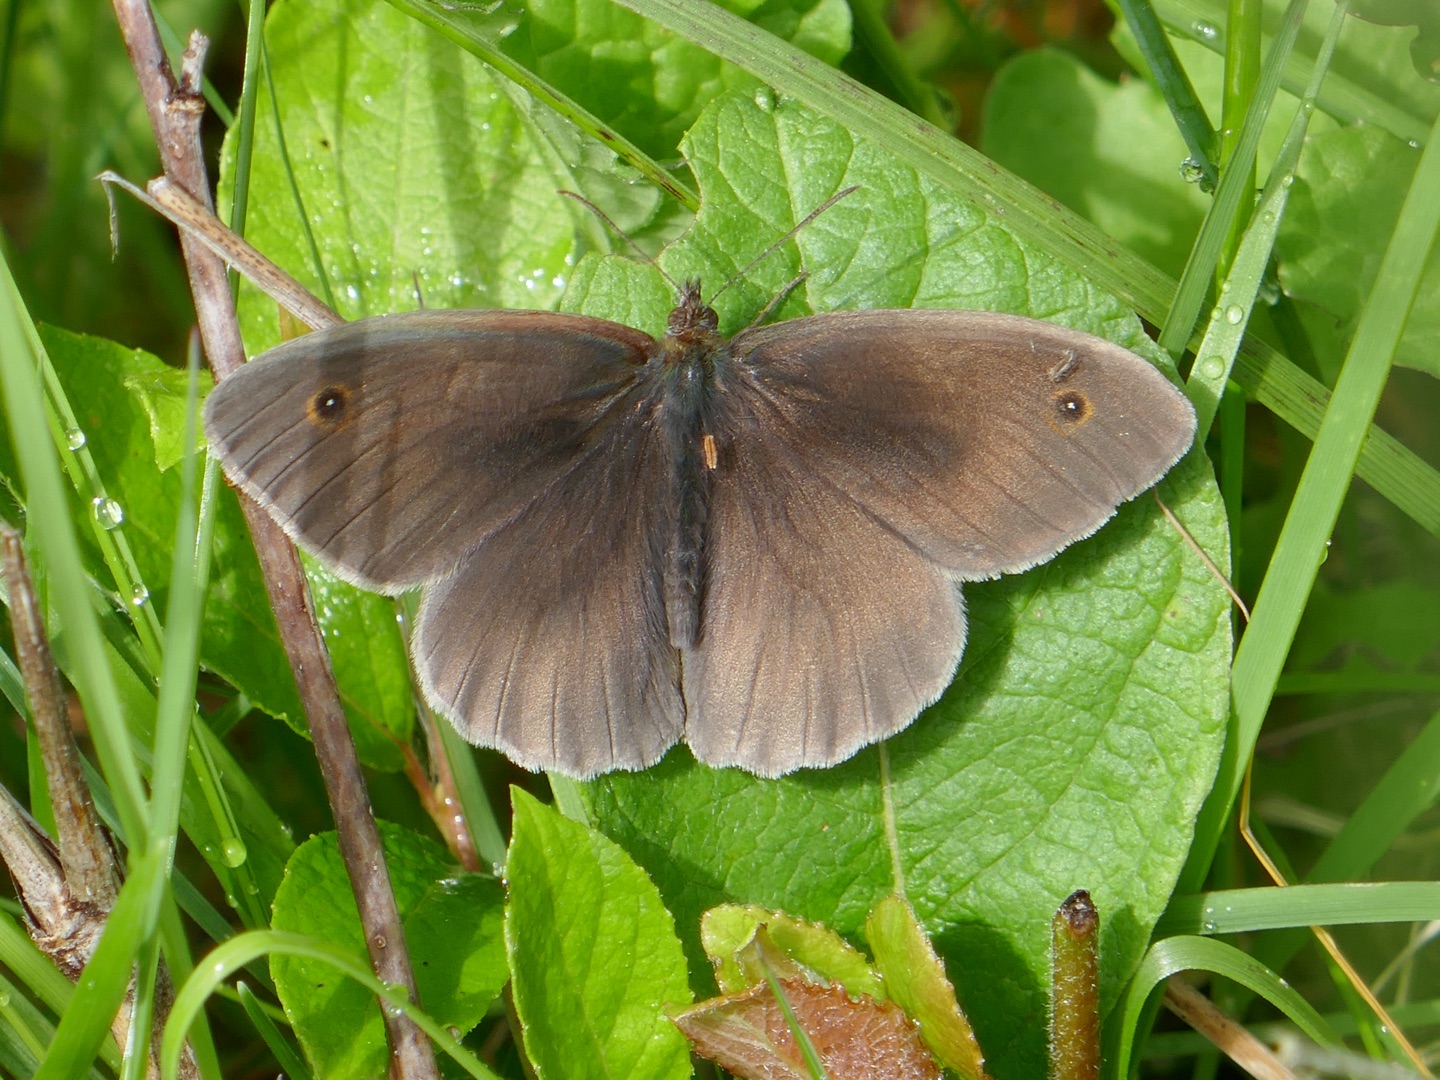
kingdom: Animalia
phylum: Arthropoda
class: Insecta
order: Lepidoptera
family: Nymphalidae
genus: Maniola
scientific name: Maniola jurtina
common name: Græsrandøje
